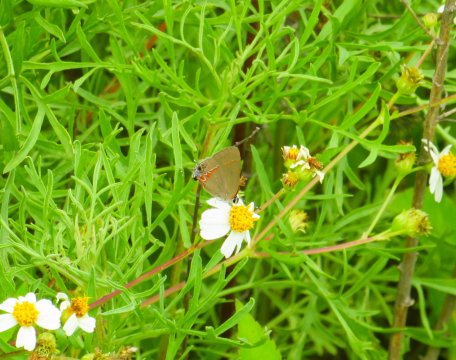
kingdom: Animalia
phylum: Arthropoda
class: Insecta
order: Lepidoptera
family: Lycaenidae
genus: Calycopis
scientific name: Calycopis cecrops
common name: Red-banded Hairstreak
